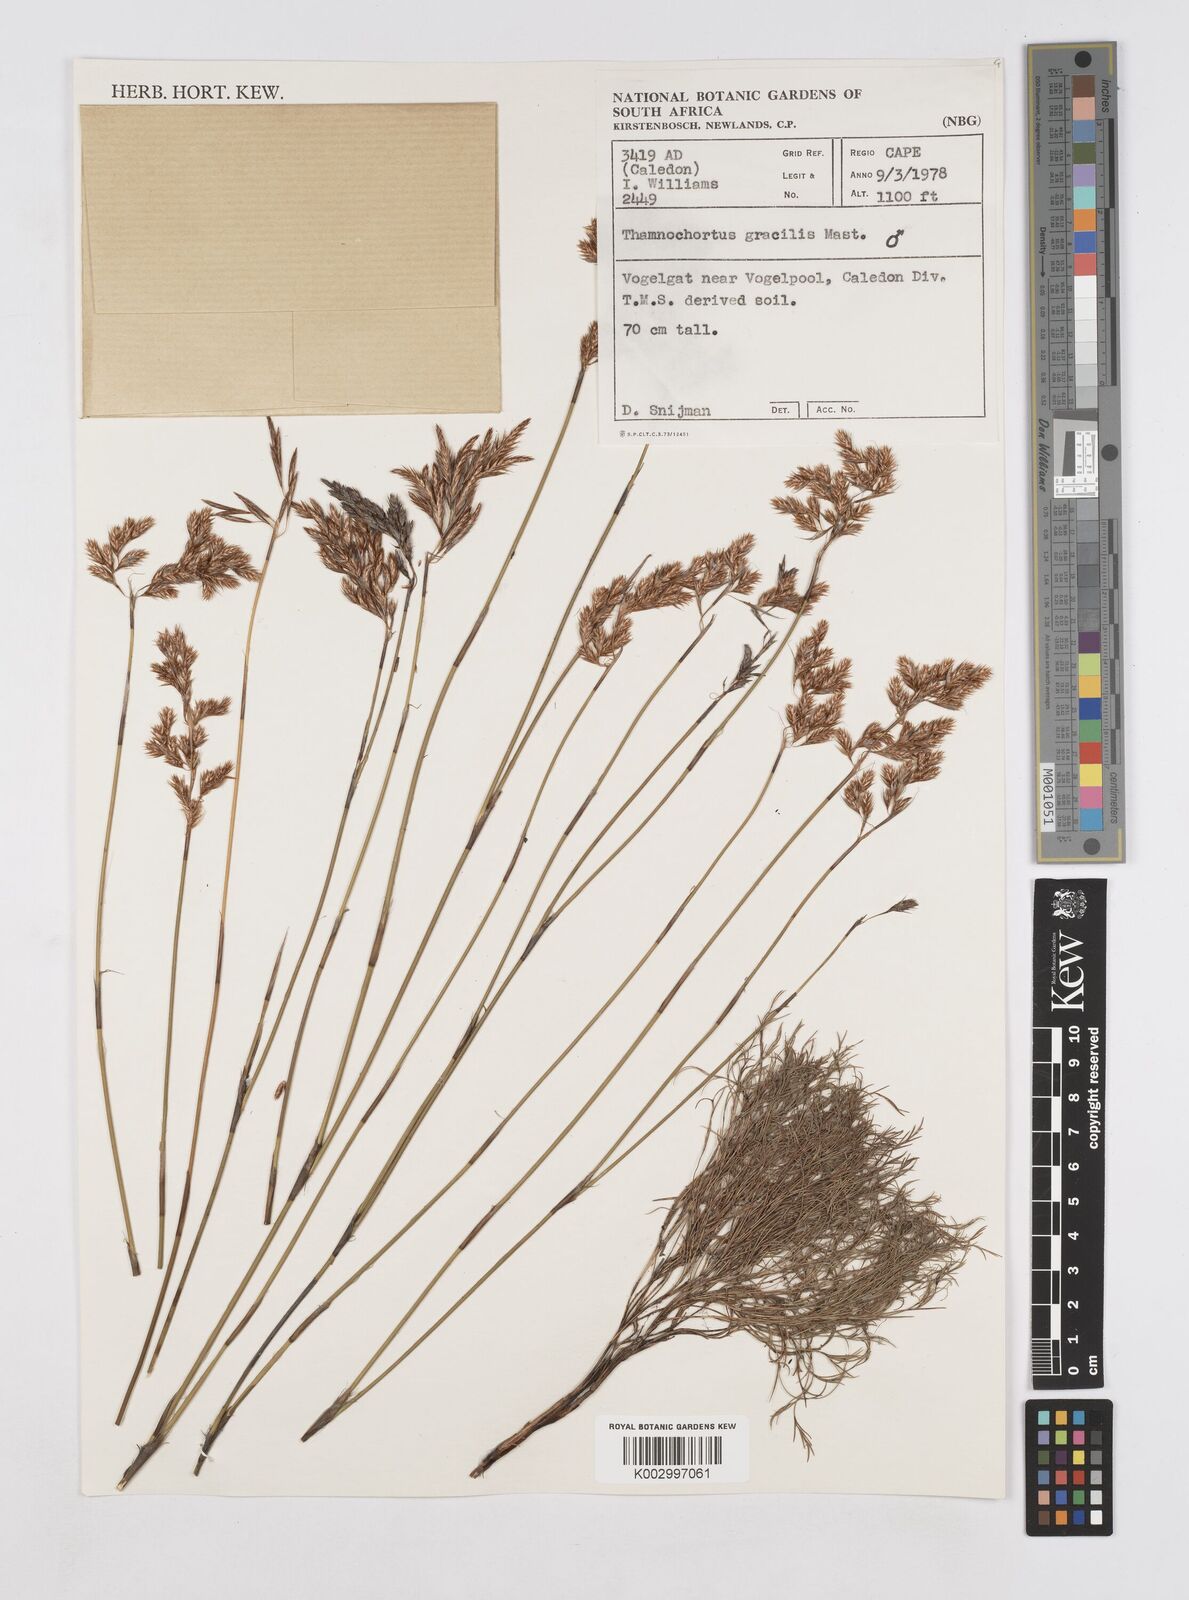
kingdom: Plantae
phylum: Tracheophyta
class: Liliopsida
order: Poales
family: Restionaceae
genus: Thamnochortus
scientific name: Thamnochortus gracilis
